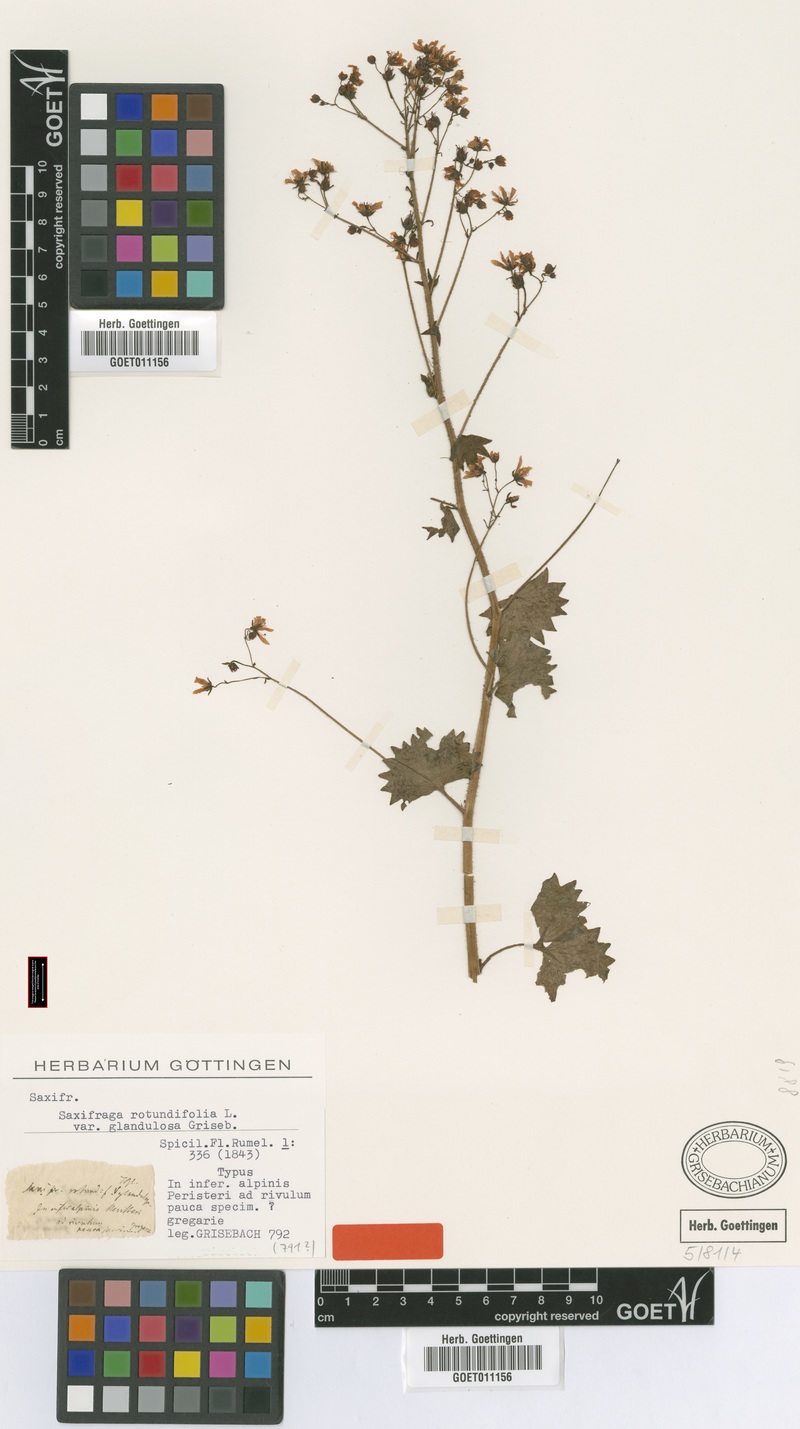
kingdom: Plantae
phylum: Tracheophyta
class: Magnoliopsida
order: Saxifragales
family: Saxifragaceae
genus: Saxifraga
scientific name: Saxifraga rotundifolia
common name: Round-leaved saxifrage
